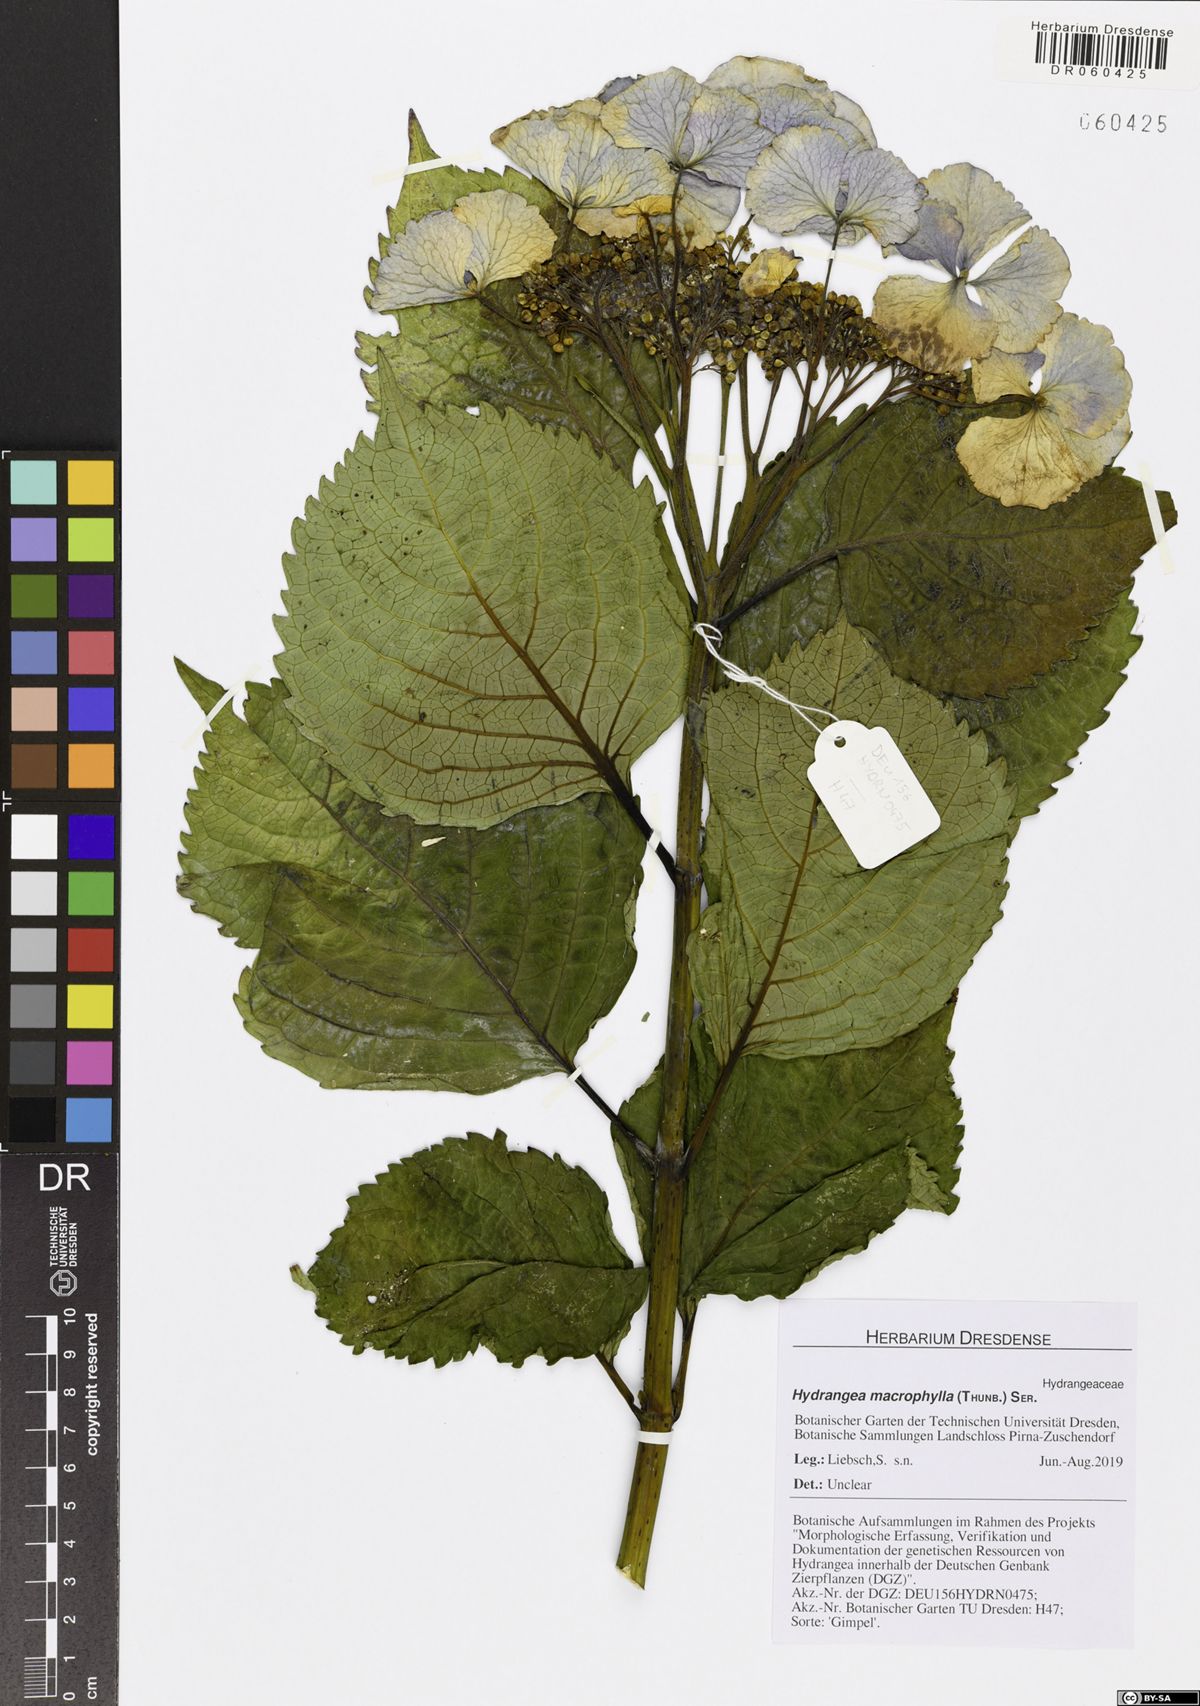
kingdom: Plantae
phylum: Tracheophyta
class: Magnoliopsida
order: Cornales
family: Hydrangeaceae
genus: Hydrangea
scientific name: Hydrangea macrophylla
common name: Hydrangea
